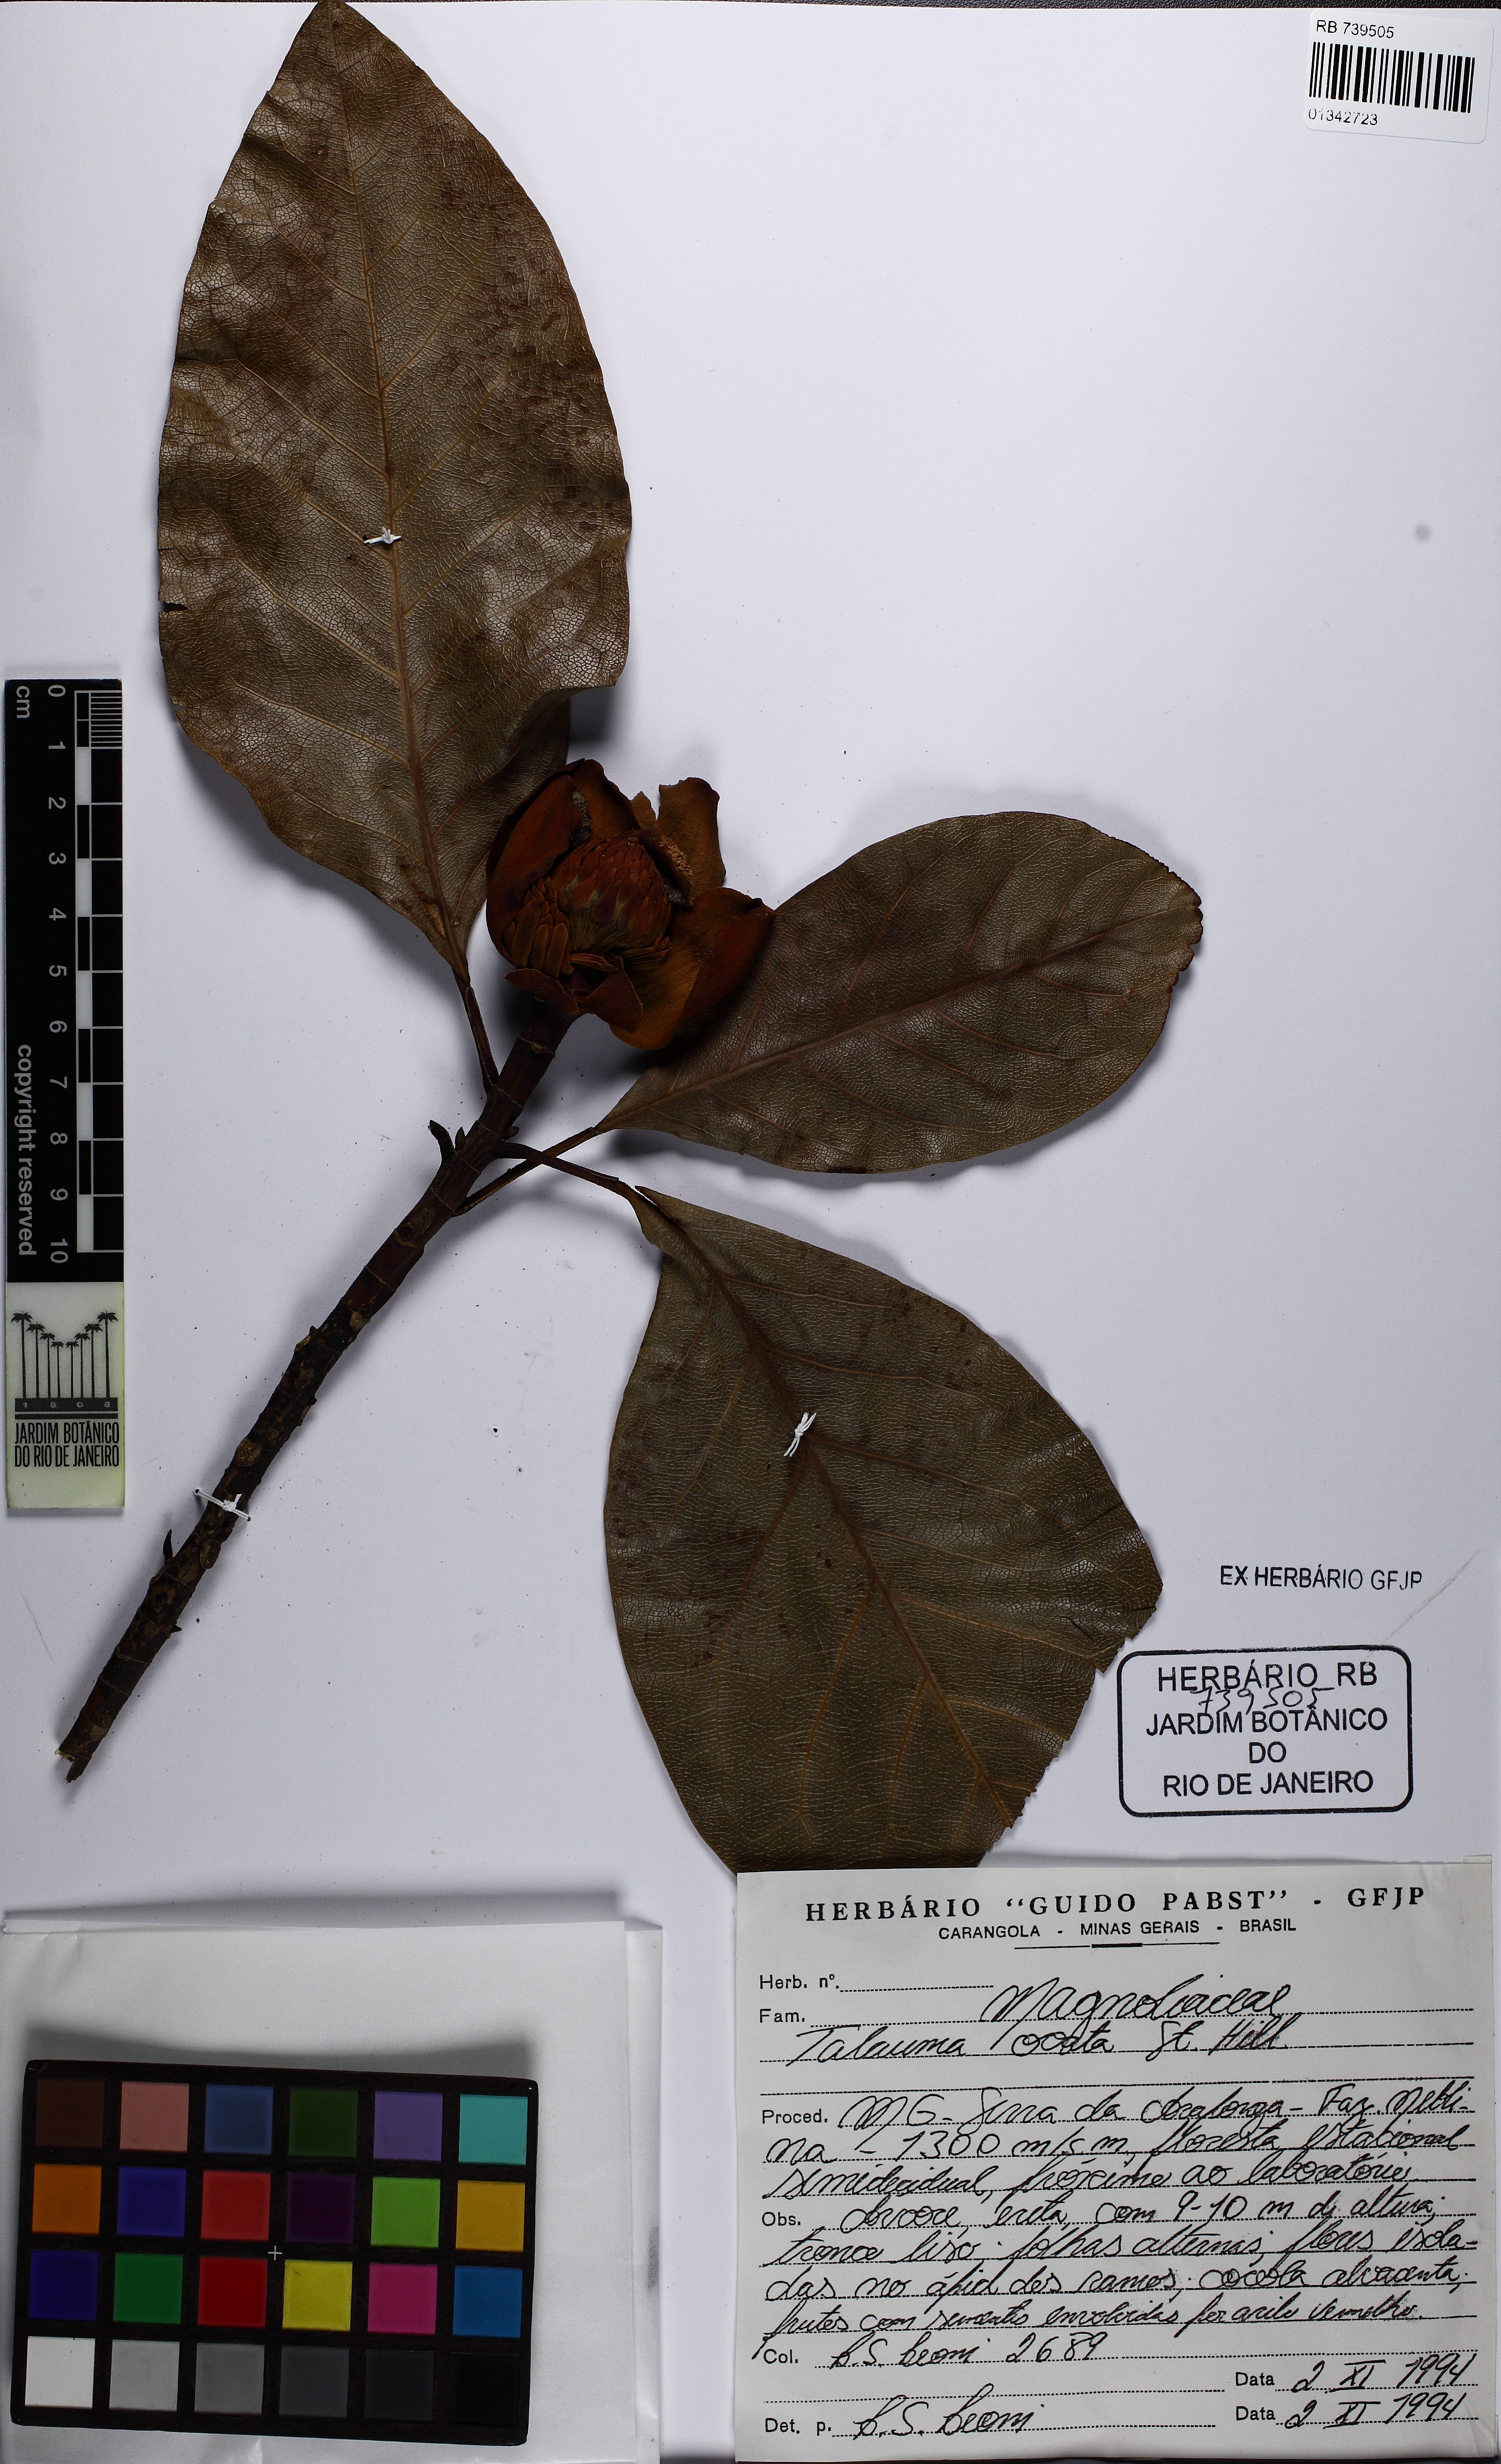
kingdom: Plantae
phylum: Tracheophyta
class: Magnoliopsida
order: Magnoliales
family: Magnoliaceae
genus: Magnolia
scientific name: Magnolia ovata
